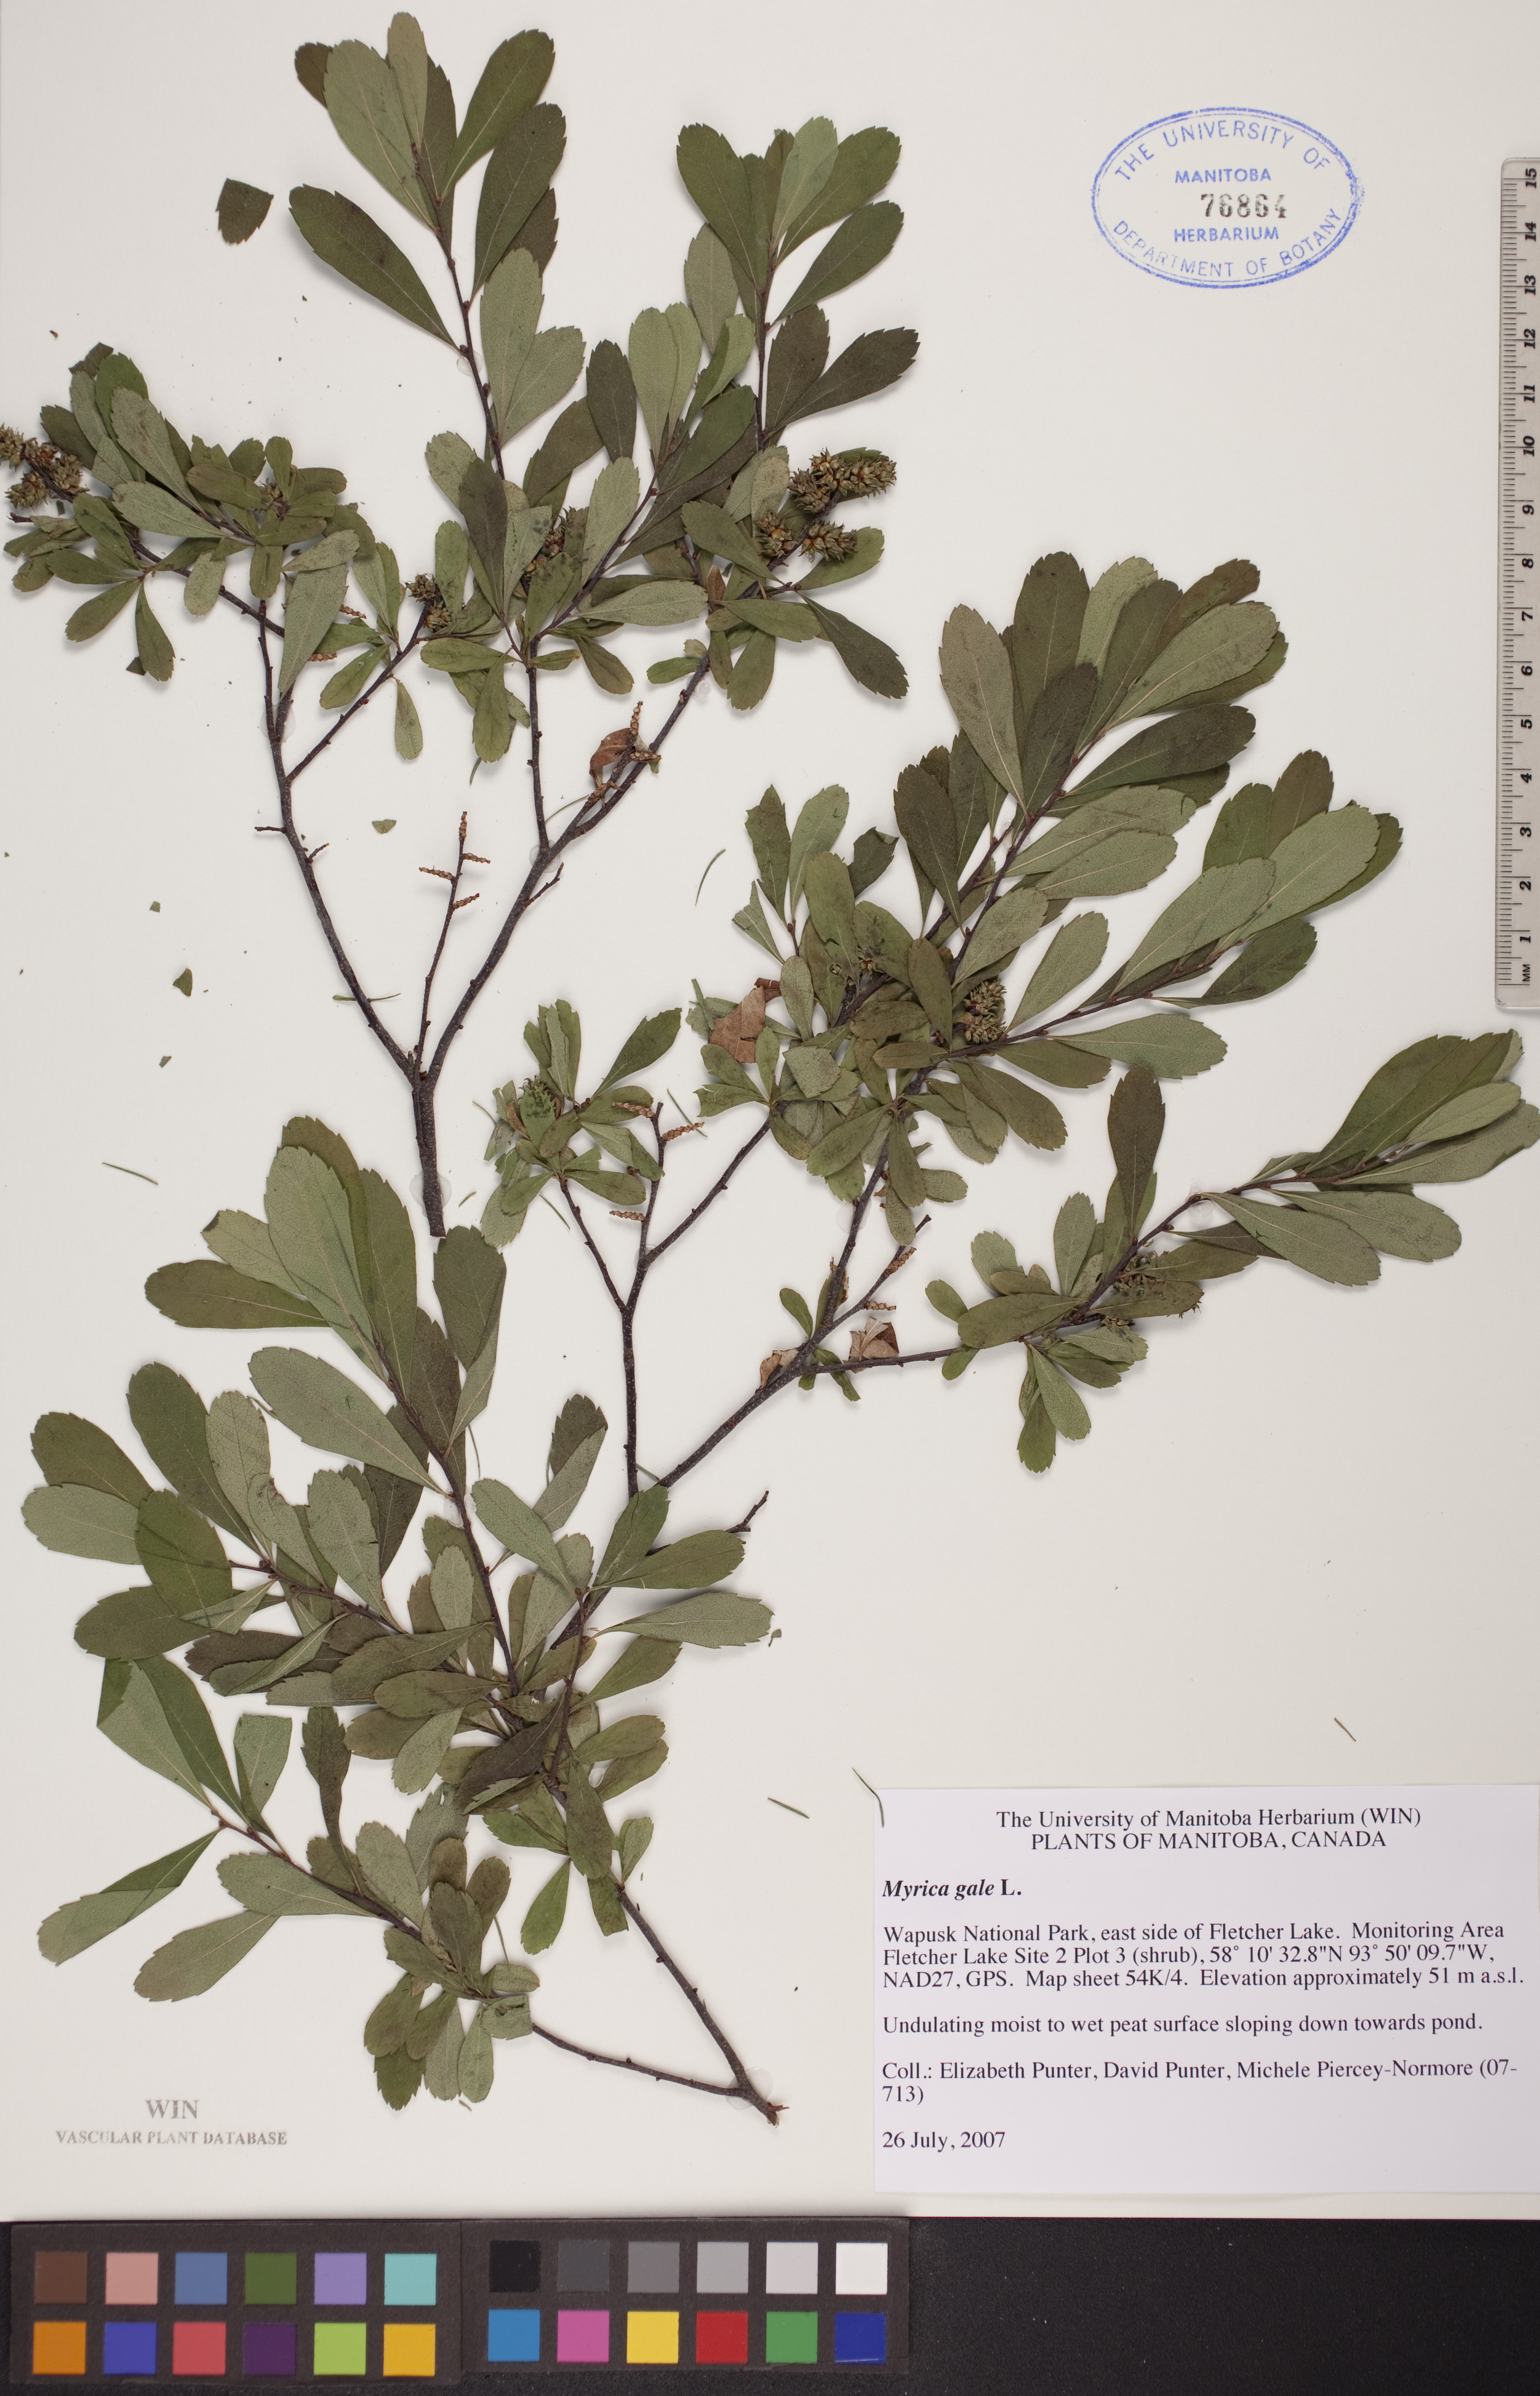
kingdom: Plantae
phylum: Tracheophyta
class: Magnoliopsida
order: Fagales
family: Myricaceae
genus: Myrica
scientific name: Myrica gale
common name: Sweet gale
